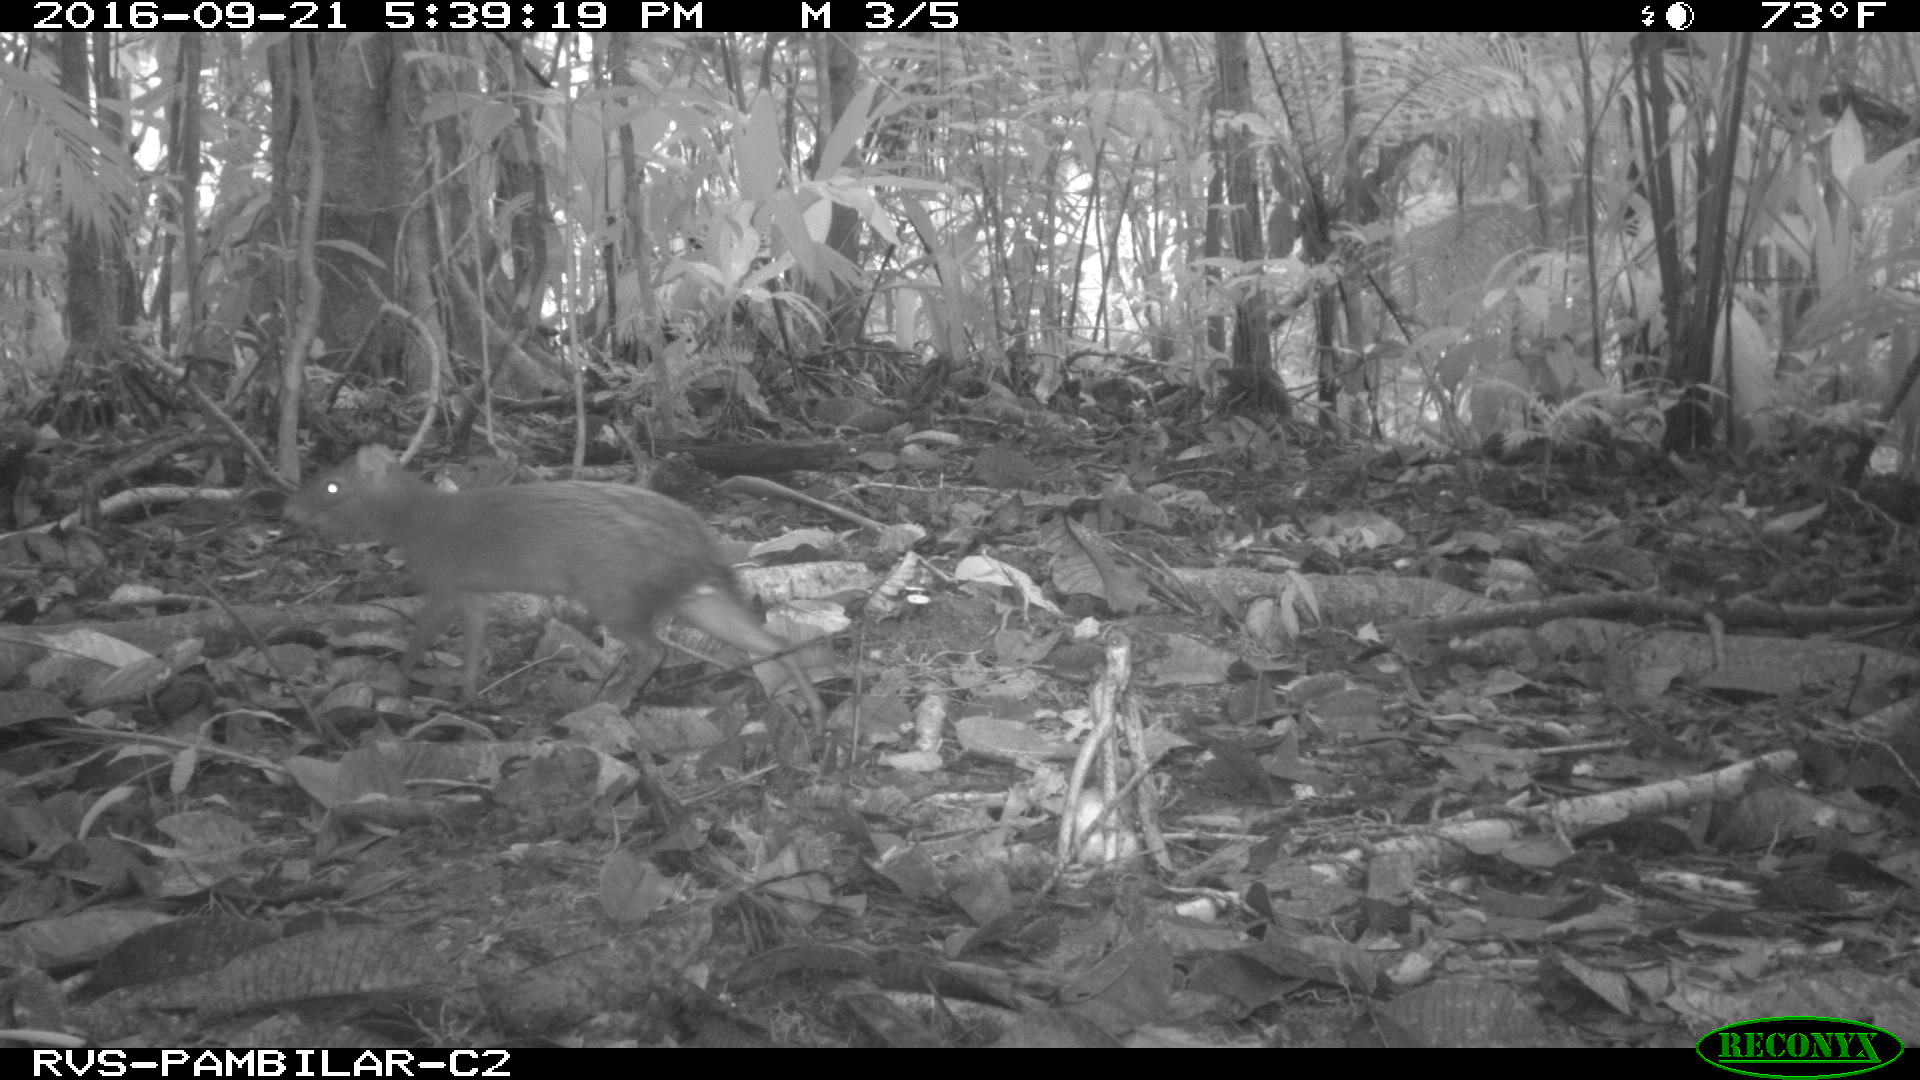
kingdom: Animalia
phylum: Chordata
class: Mammalia
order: Rodentia
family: Dasyproctidae
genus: Dasyprocta
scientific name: Dasyprocta punctata
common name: Central american agouti
